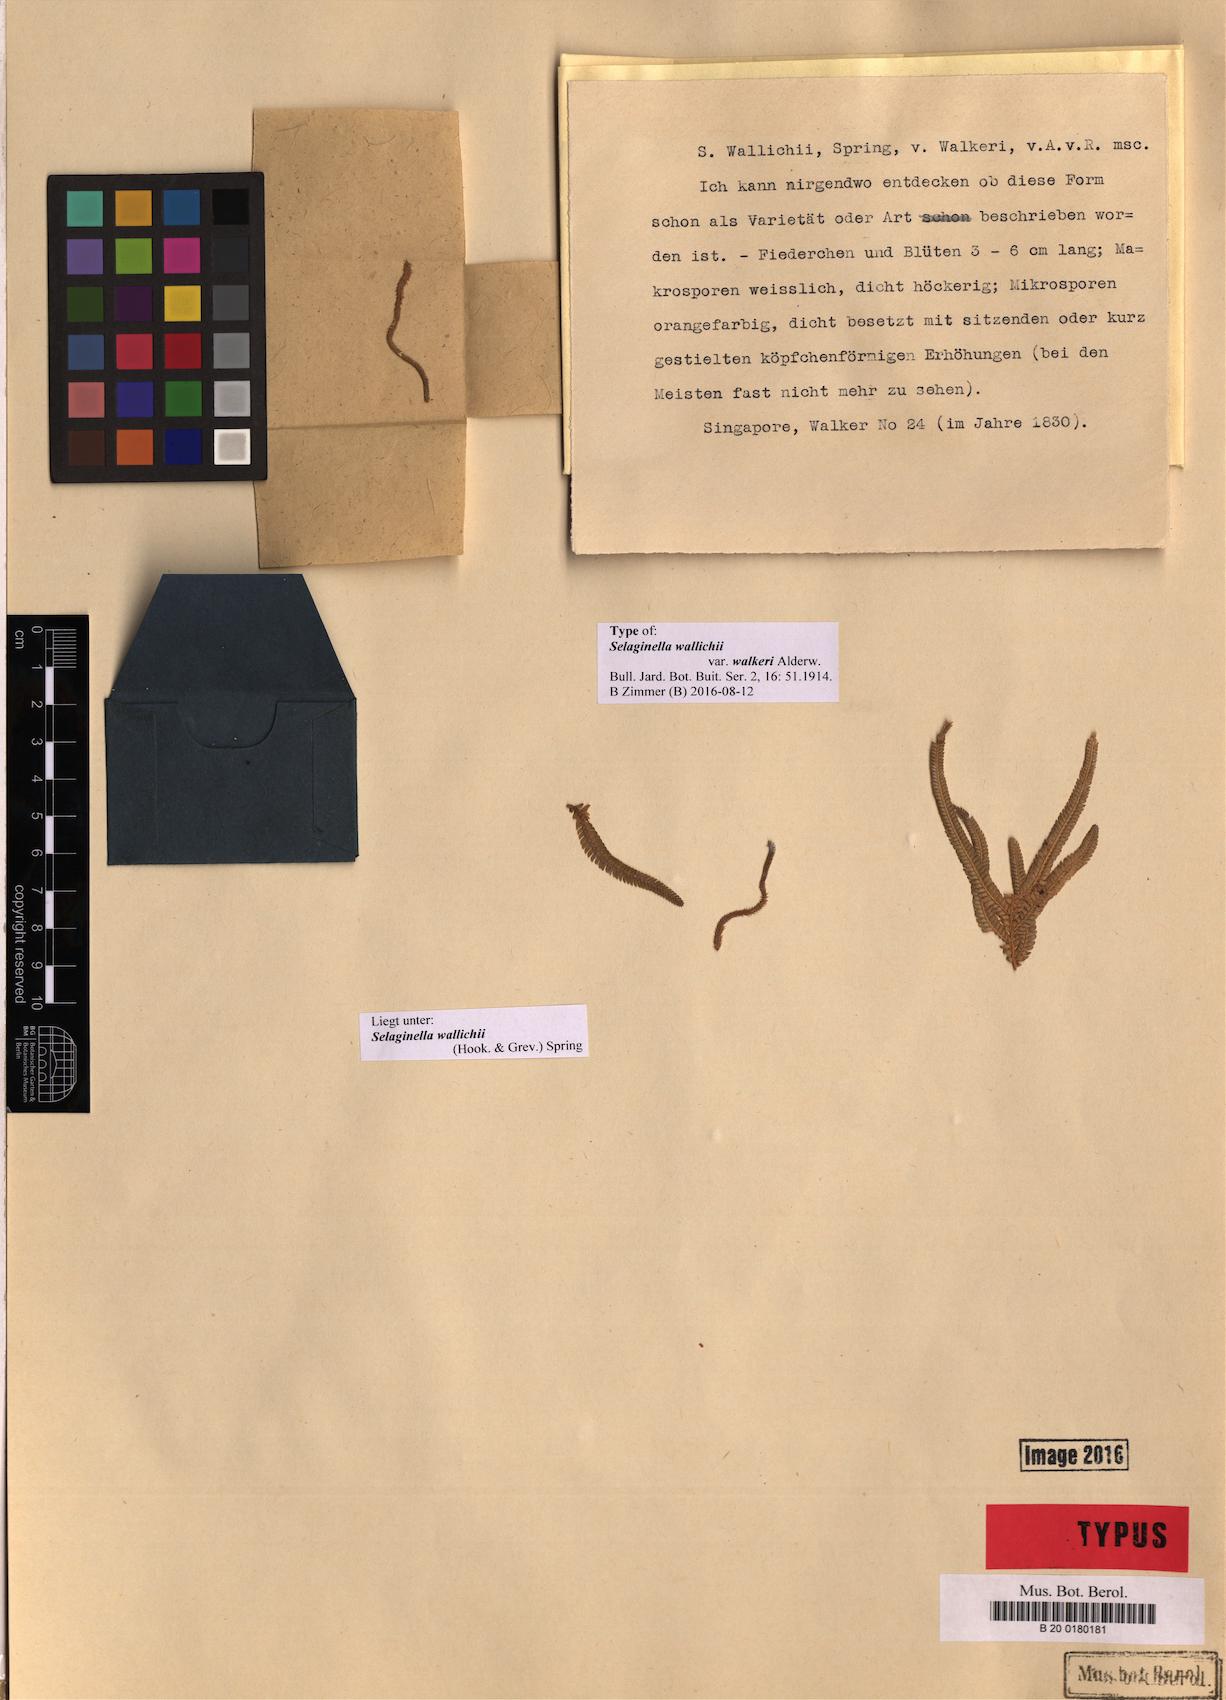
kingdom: Plantae
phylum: Tracheophyta
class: Lycopodiopsida
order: Selaginellales
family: Selaginellaceae
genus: Selaginella
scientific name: Selaginella wallichii
